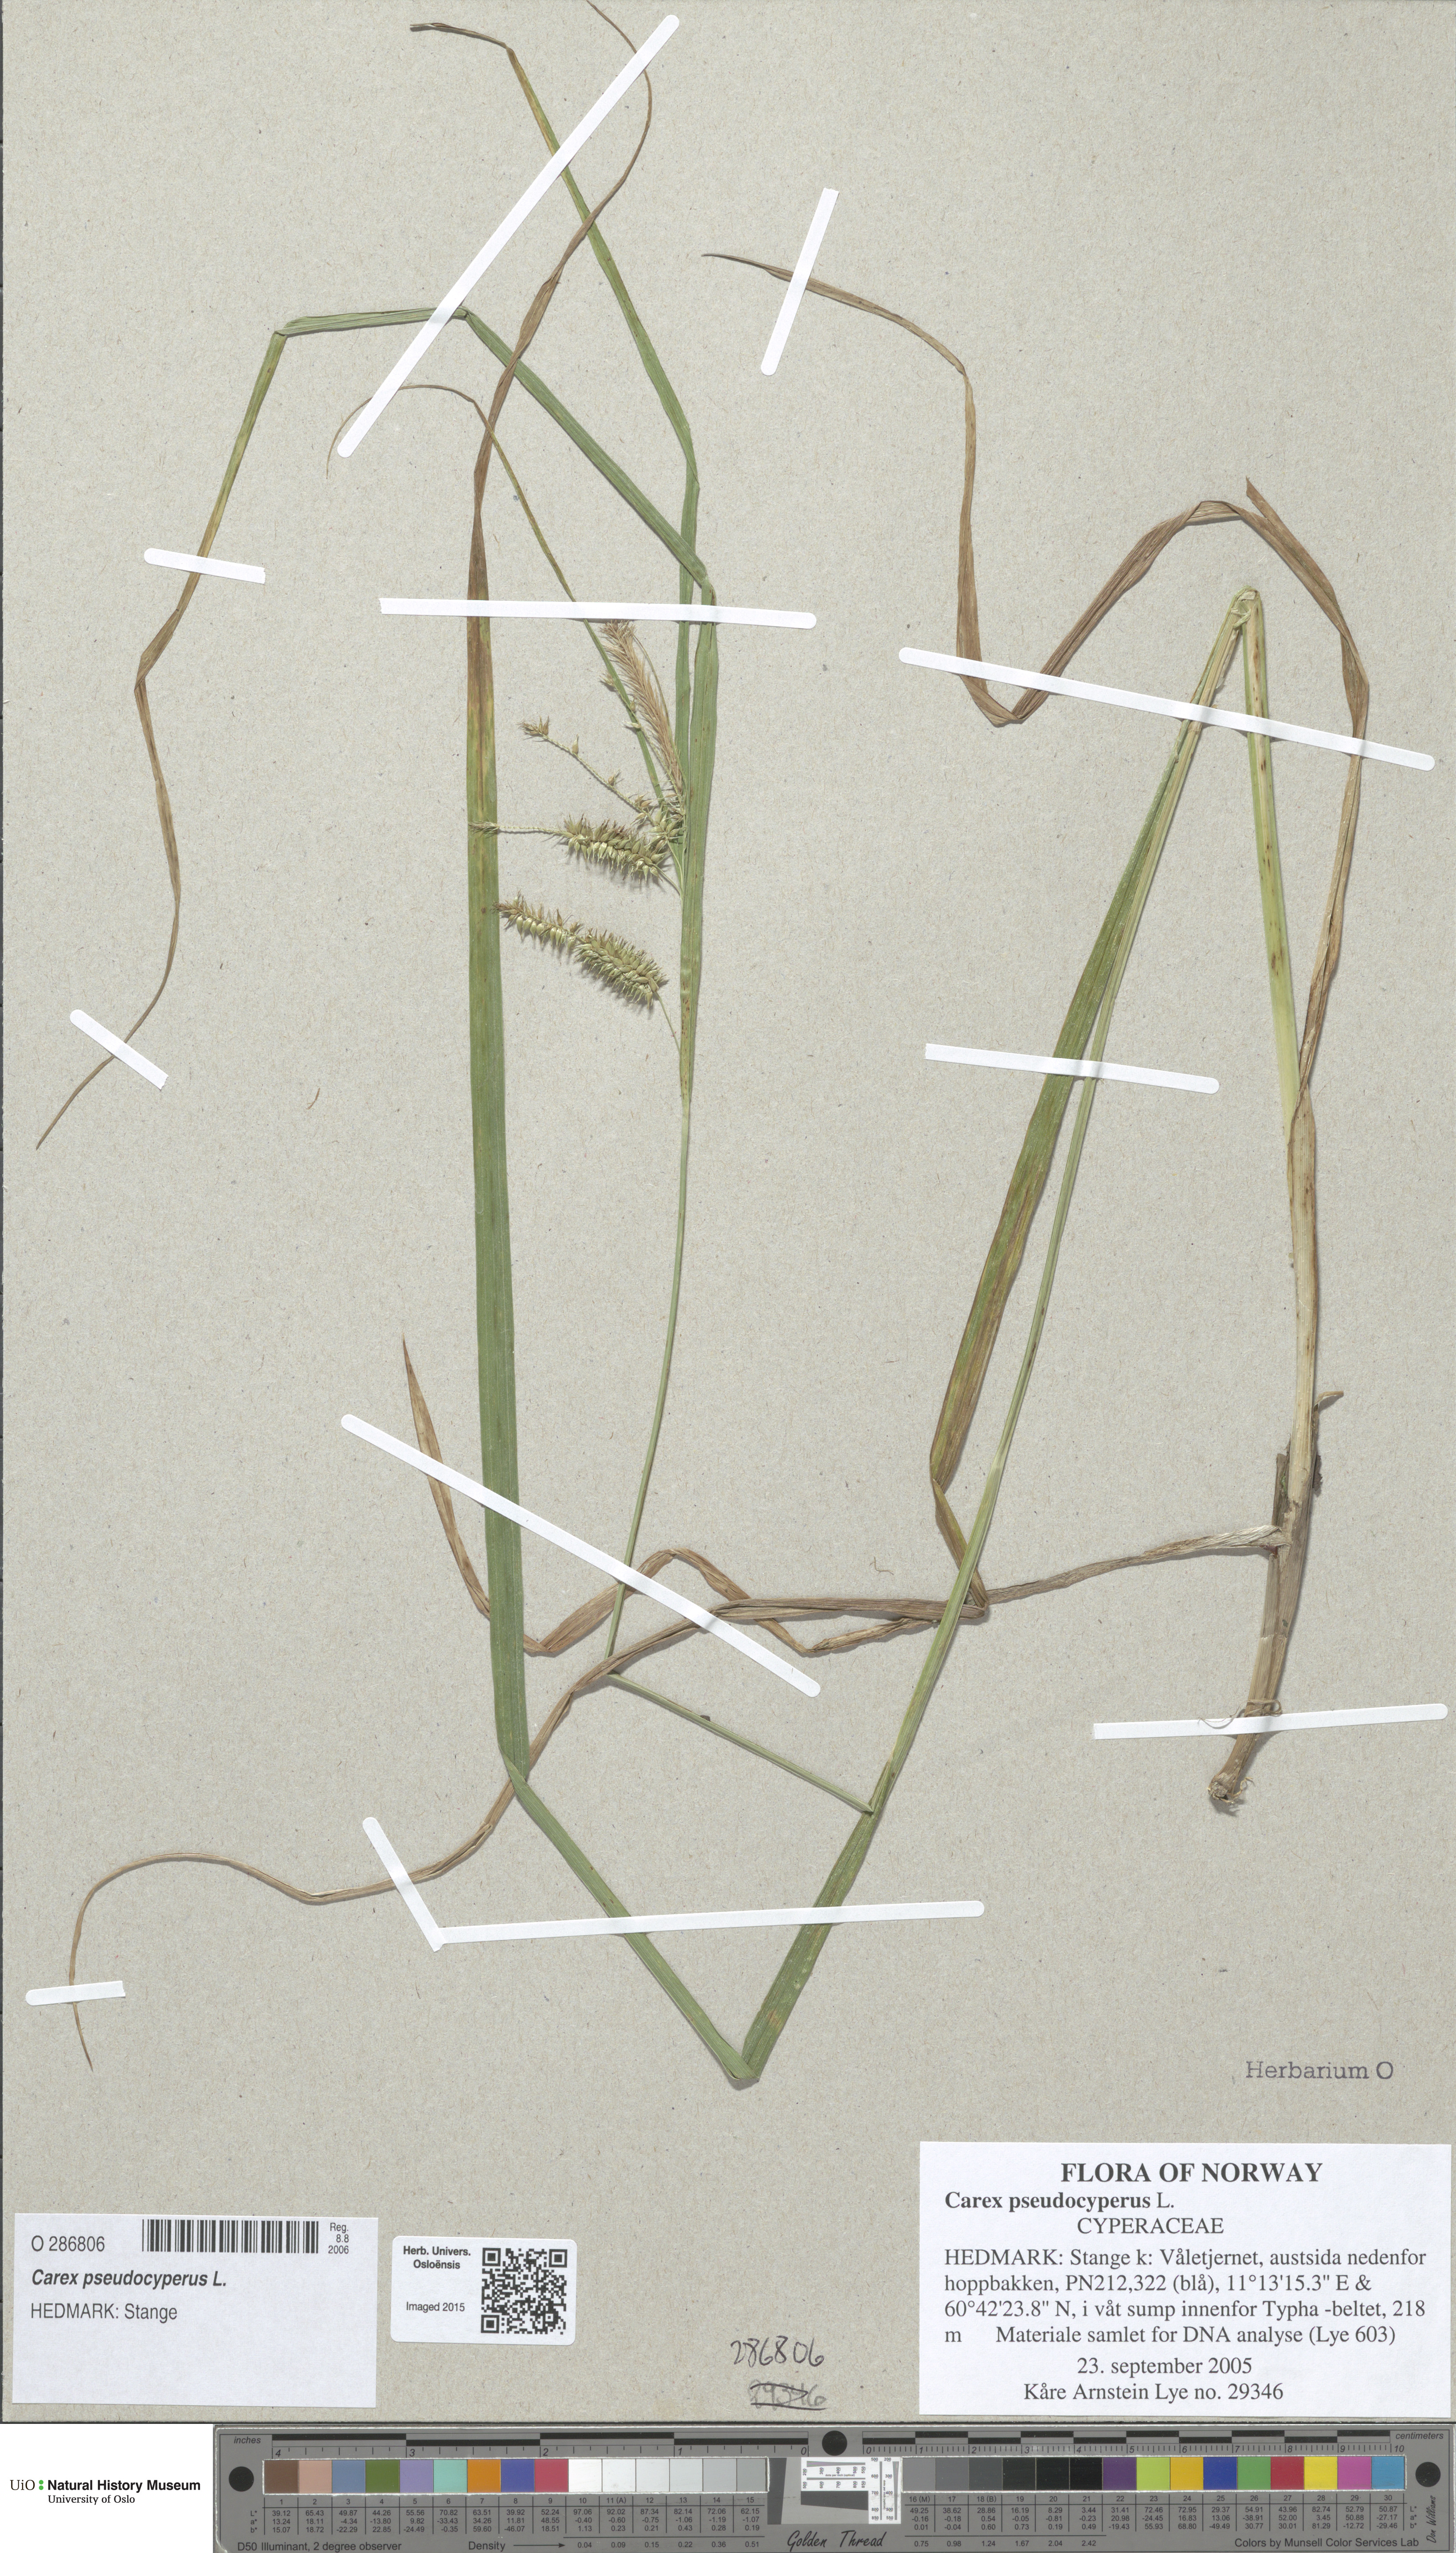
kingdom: Plantae
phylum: Tracheophyta
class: Liliopsida
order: Poales
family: Cyperaceae
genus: Carex
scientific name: Carex pseudocyperus
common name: Cyperus sedge
